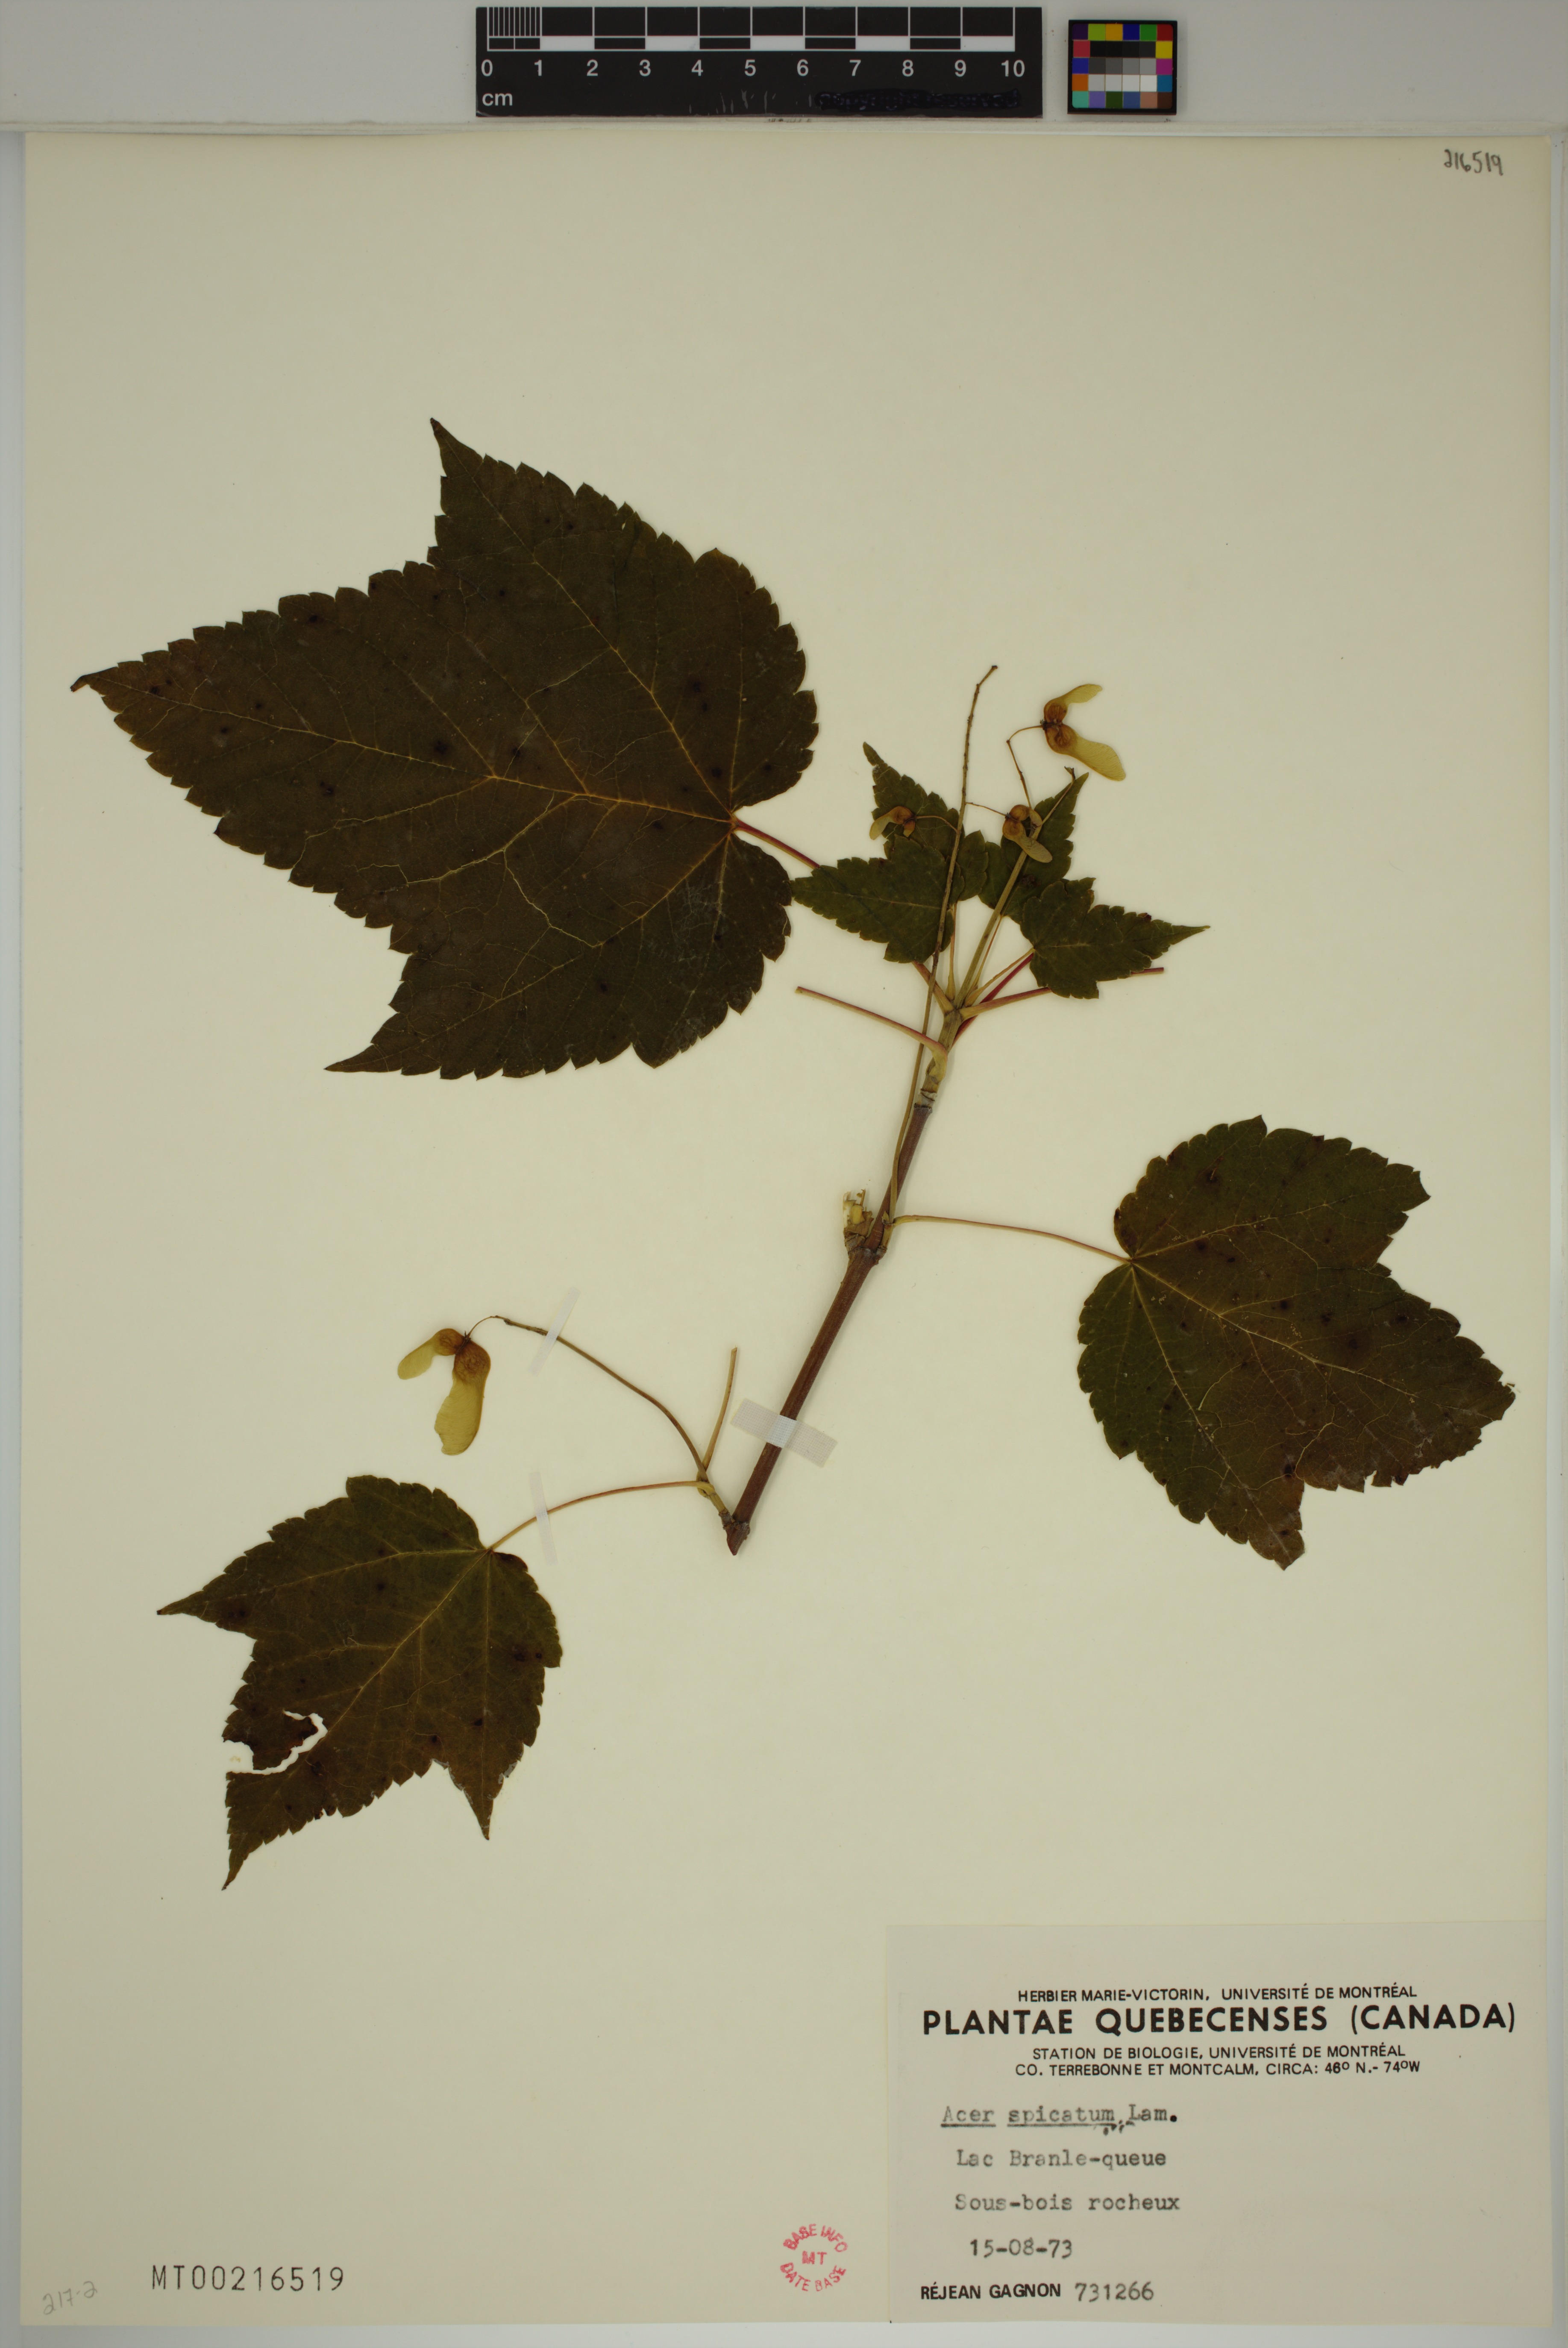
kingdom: Plantae
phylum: Tracheophyta
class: Magnoliopsida
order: Sapindales
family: Sapindaceae
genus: Acer
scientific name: Acer spicatum
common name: Mountain maple
